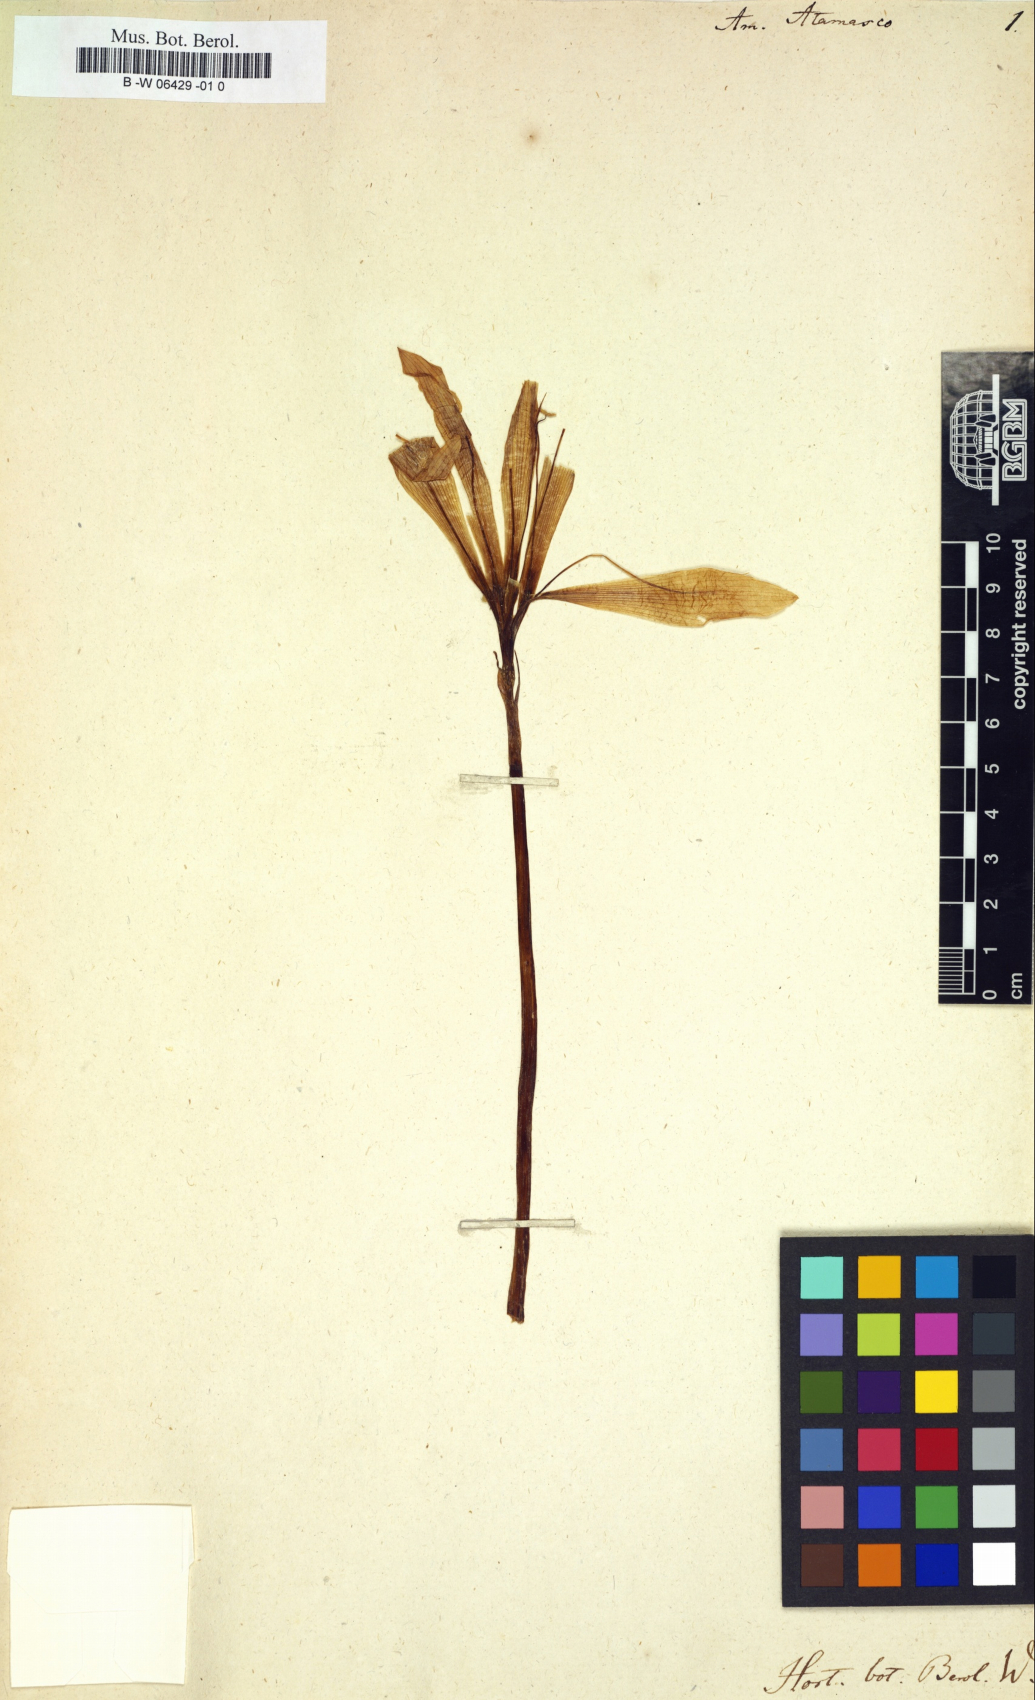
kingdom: Plantae
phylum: Tracheophyta
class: Liliopsida
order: Asparagales
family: Amaryllidaceae
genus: Amaryllis
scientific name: Amaryllis atamasco
